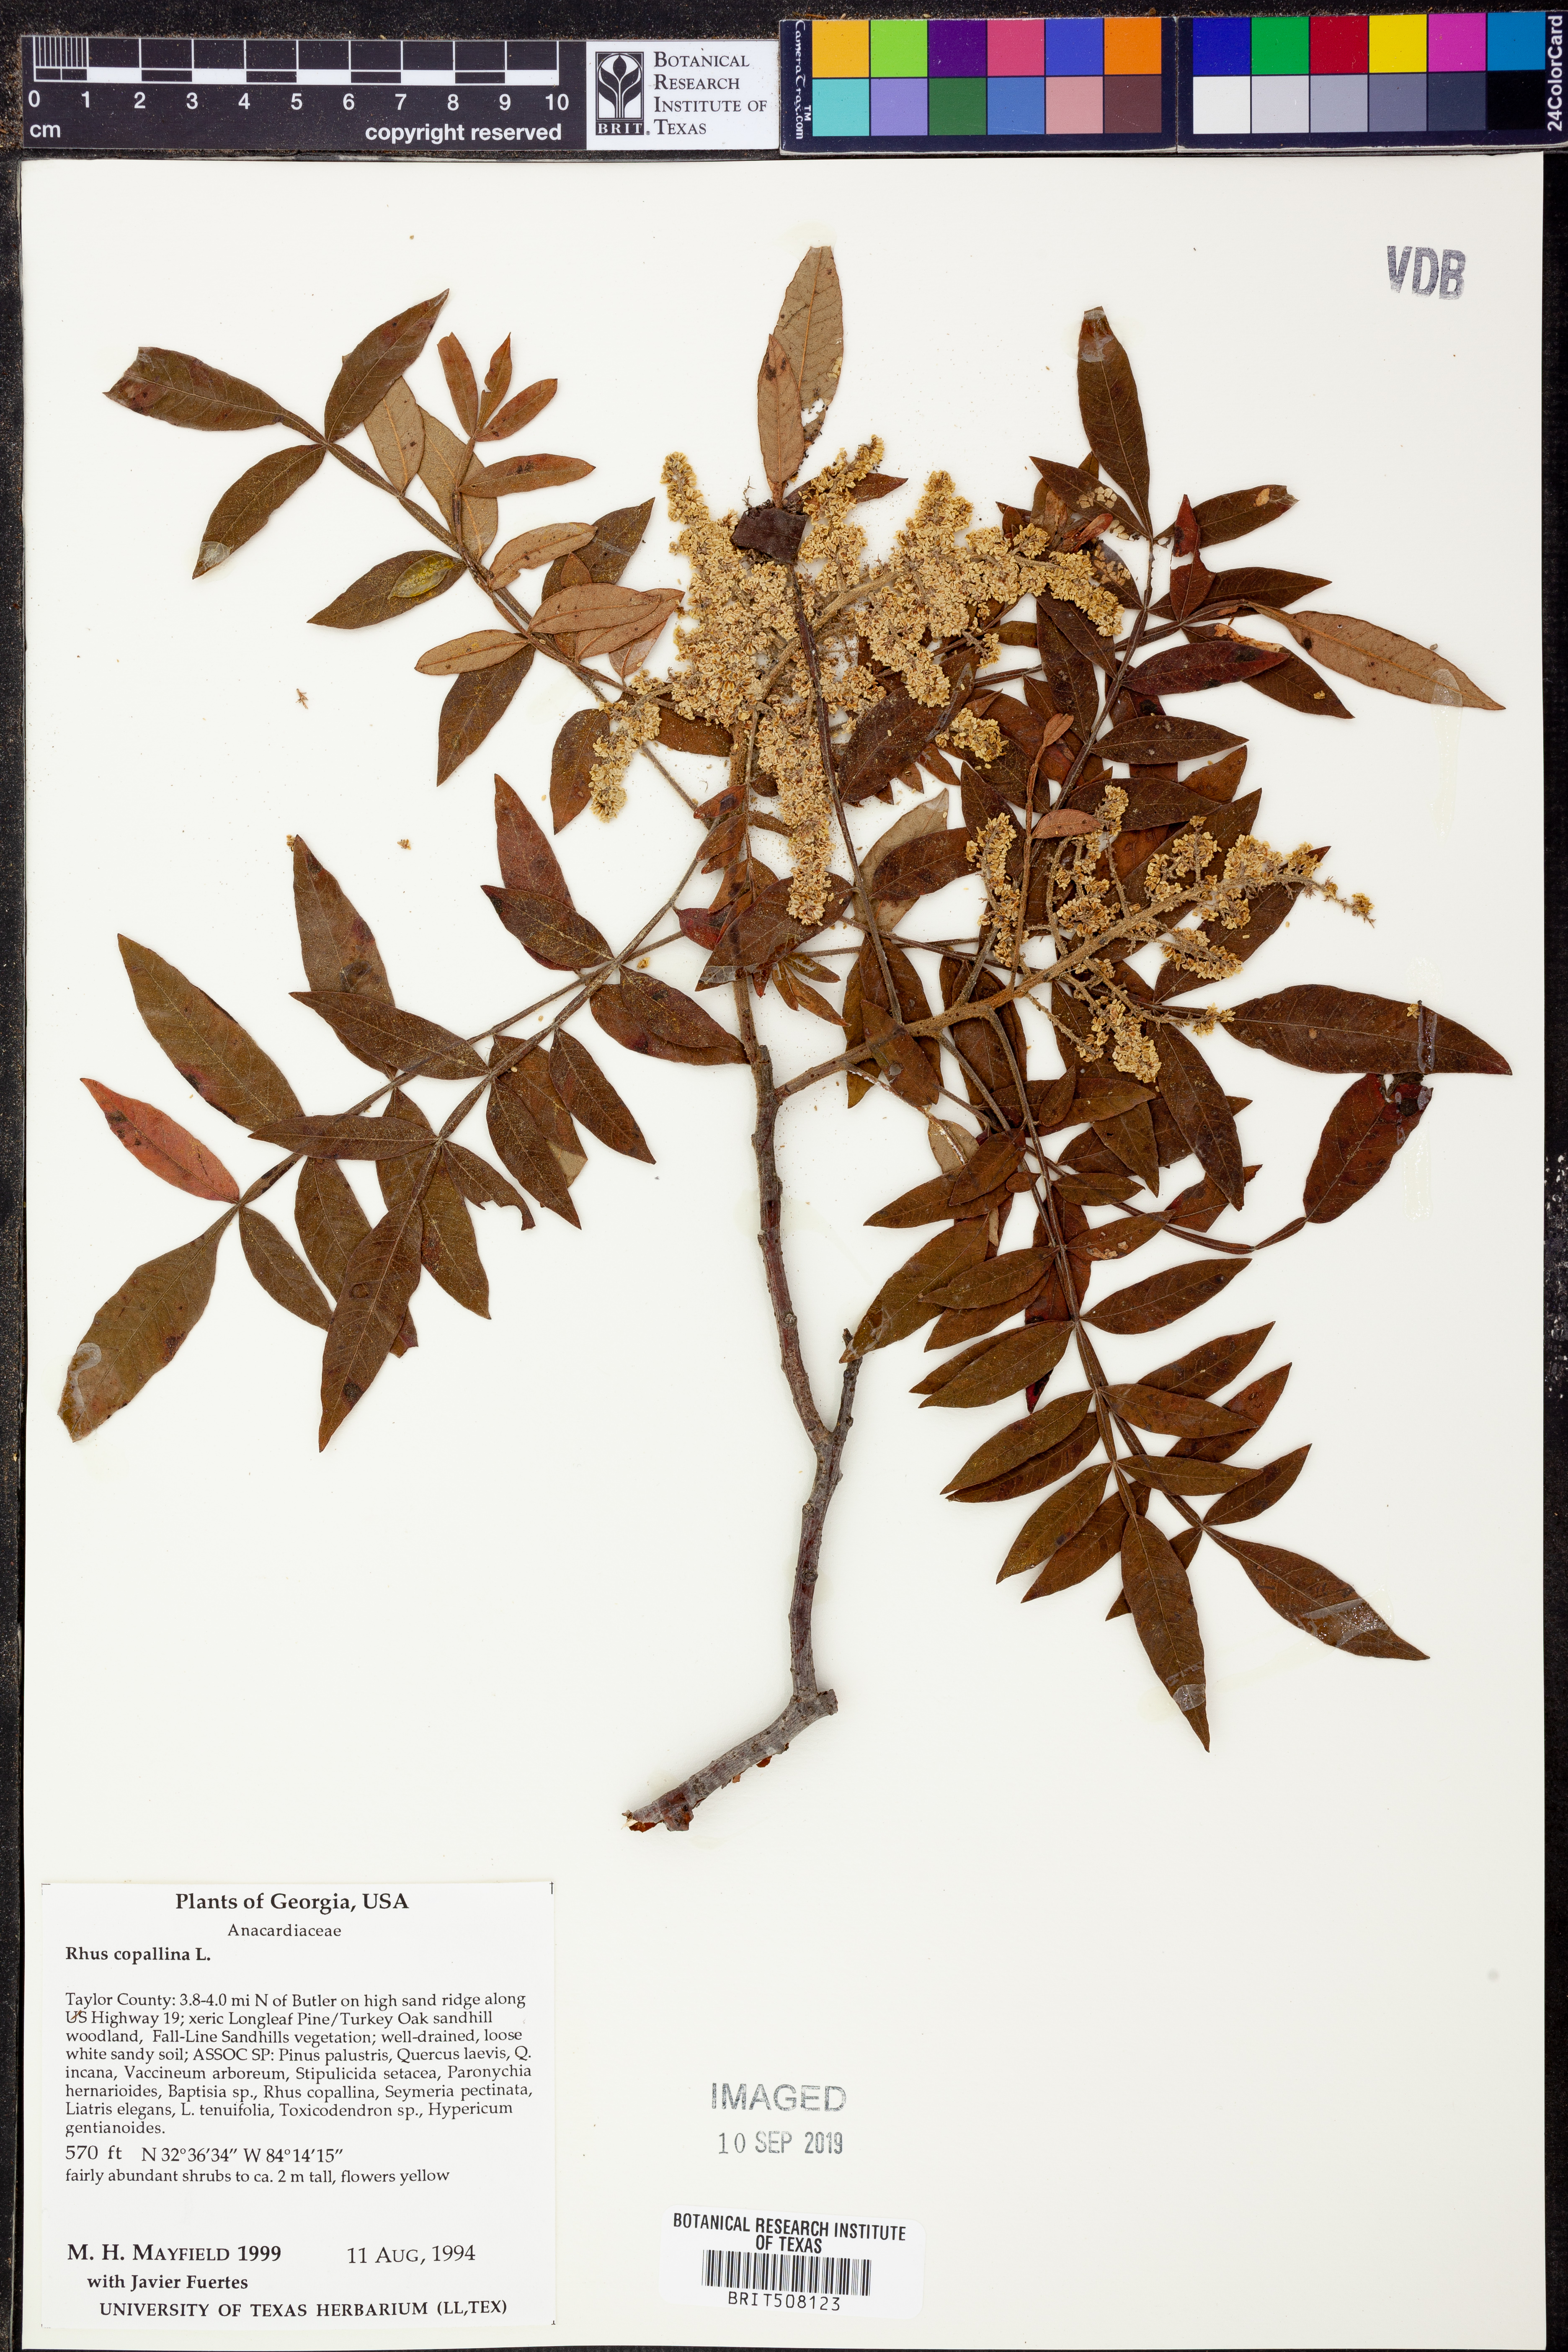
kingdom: Plantae
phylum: Tracheophyta
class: Magnoliopsida
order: Sapindales
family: Anacardiaceae
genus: Rhus
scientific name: Rhus copallina
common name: Shining sumac
